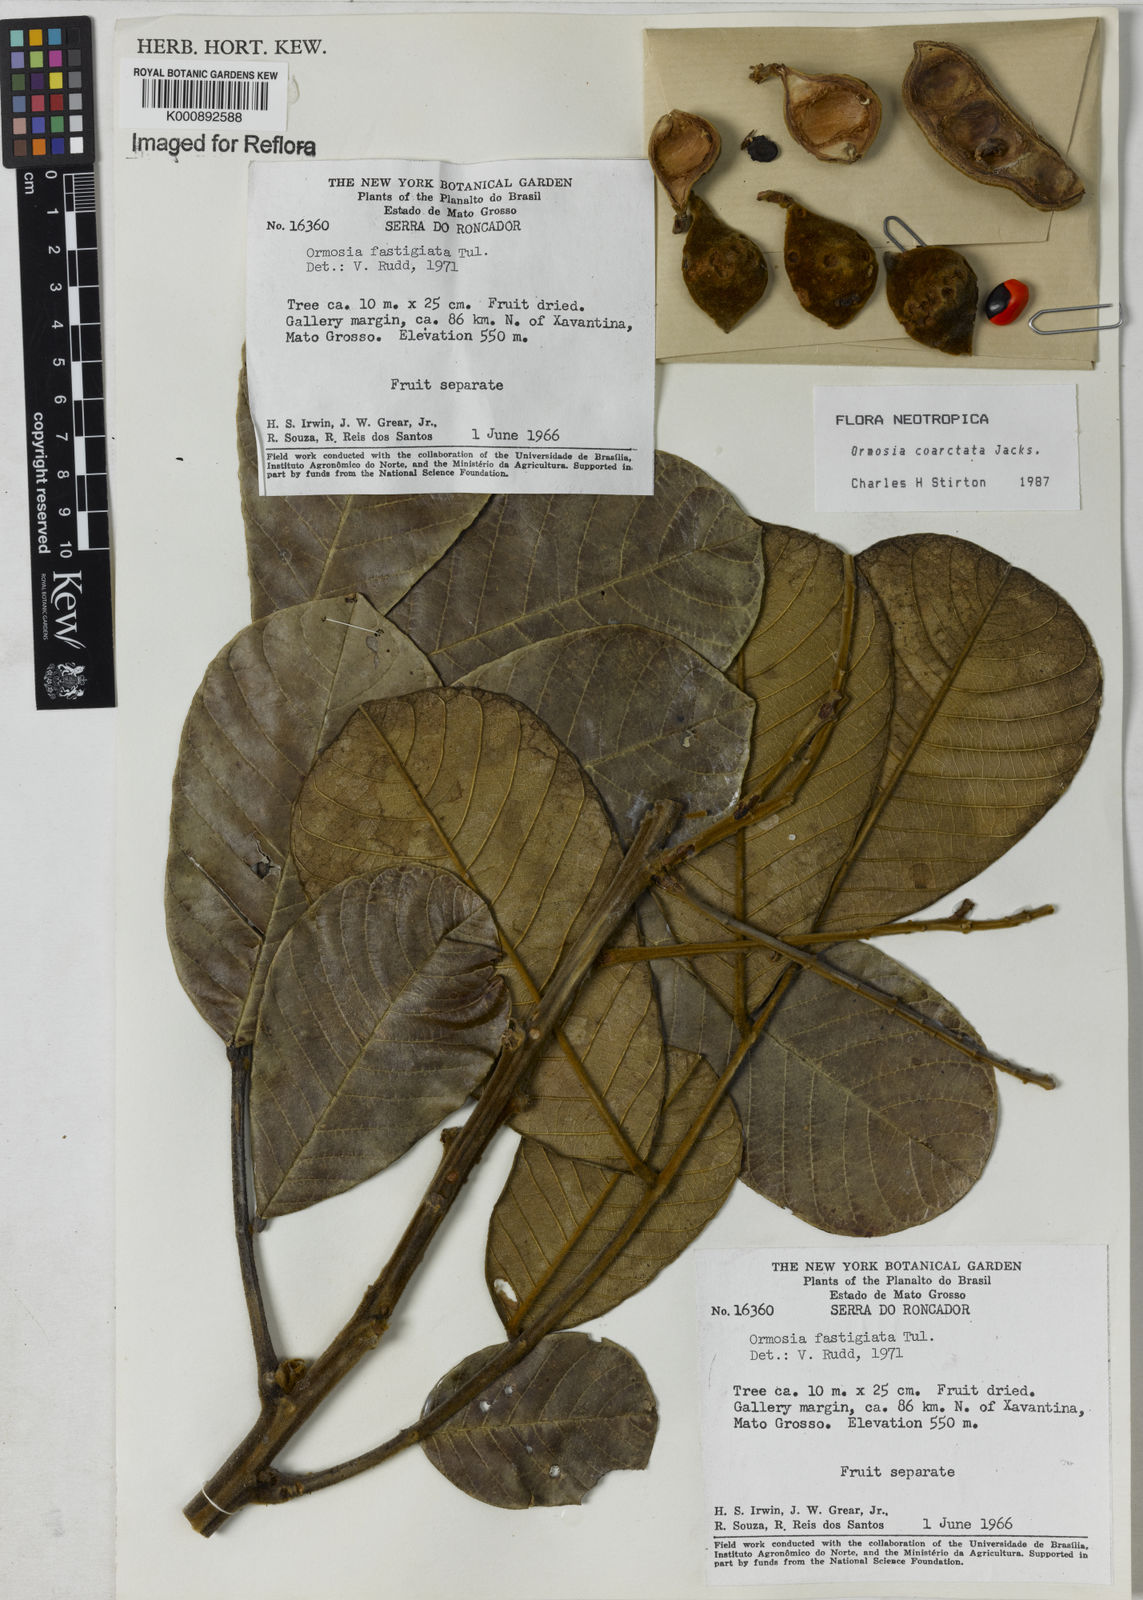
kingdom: Plantae
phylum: Tracheophyta
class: Magnoliopsida
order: Fabales
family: Fabaceae
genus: Ormosia
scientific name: Ormosia coarctata
